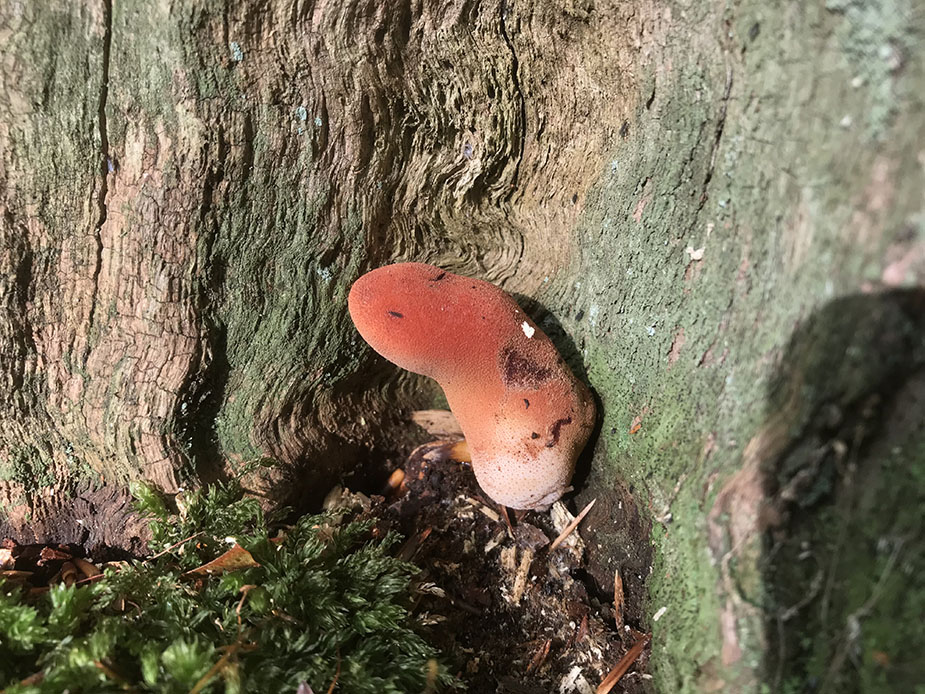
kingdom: Fungi
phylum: Basidiomycota
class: Agaricomycetes
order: Agaricales
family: Fistulinaceae
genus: Fistulina
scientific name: Fistulina hepatica
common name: oksetunge
